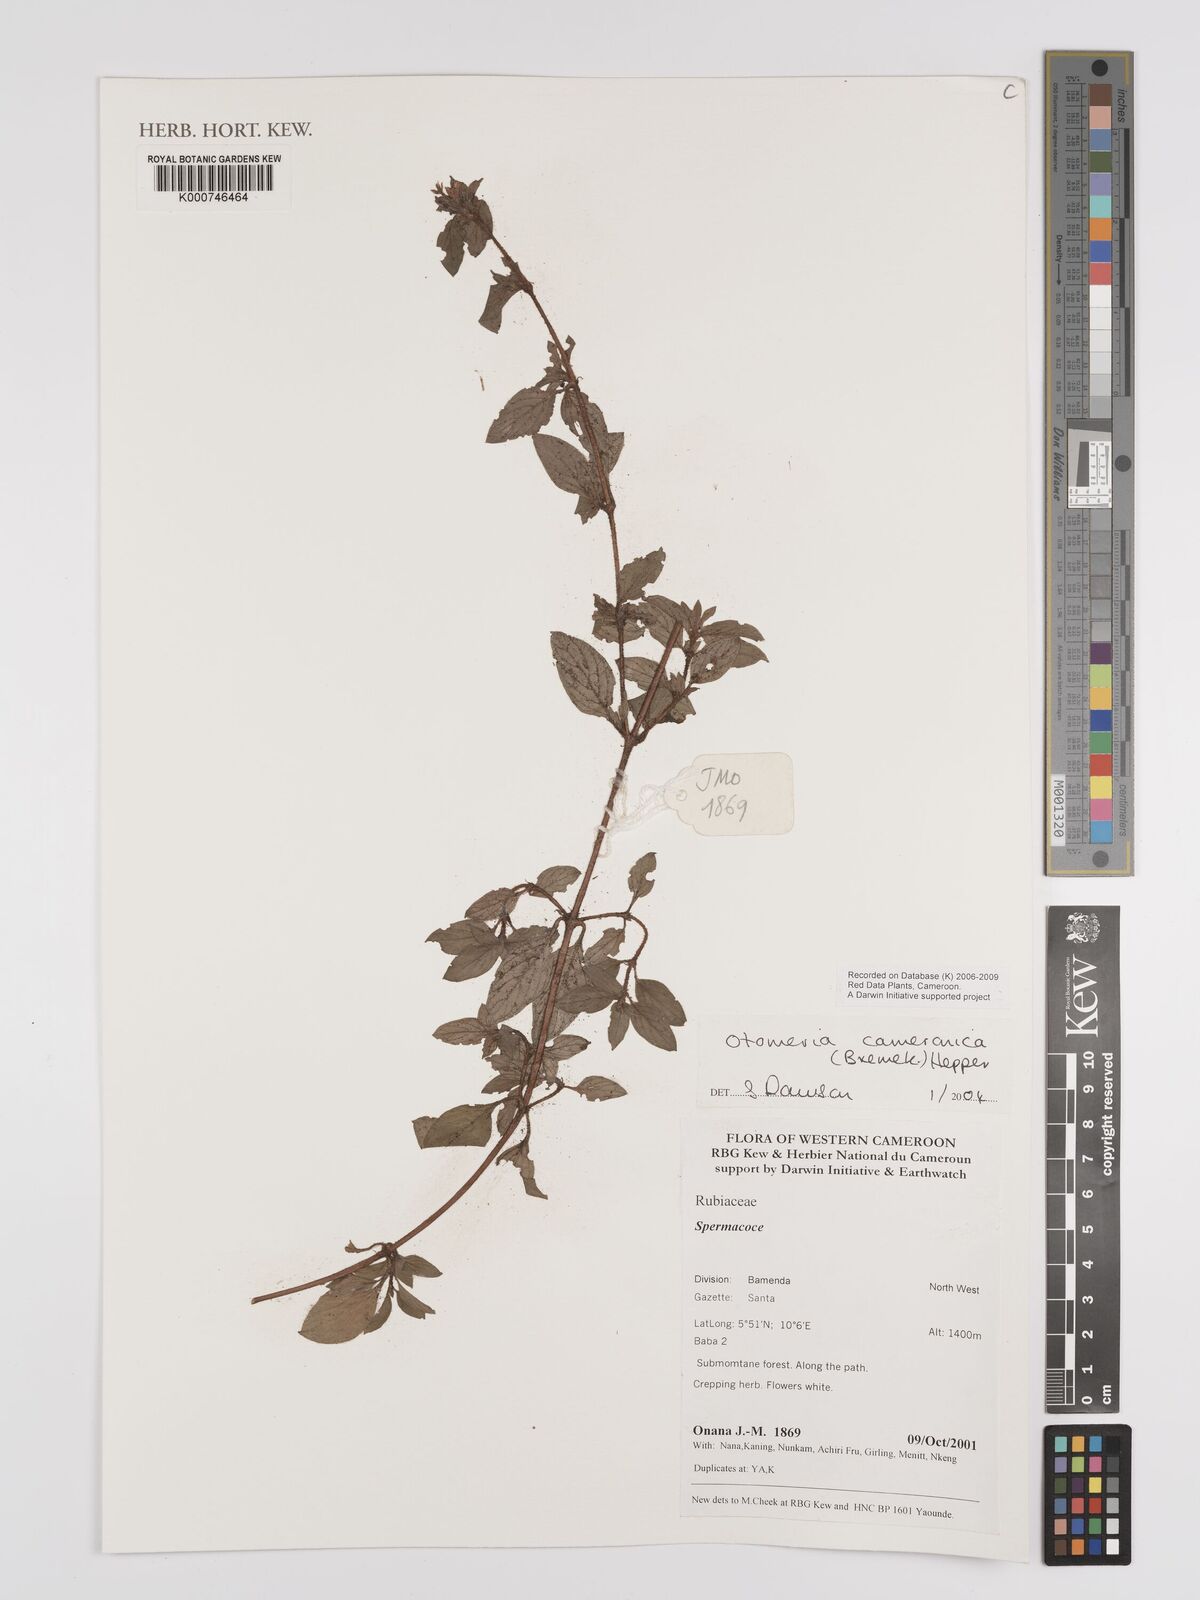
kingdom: Plantae
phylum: Tracheophyta
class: Magnoliopsida
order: Gentianales
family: Rubiaceae
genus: Otomeria
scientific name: Otomeria cameronica
